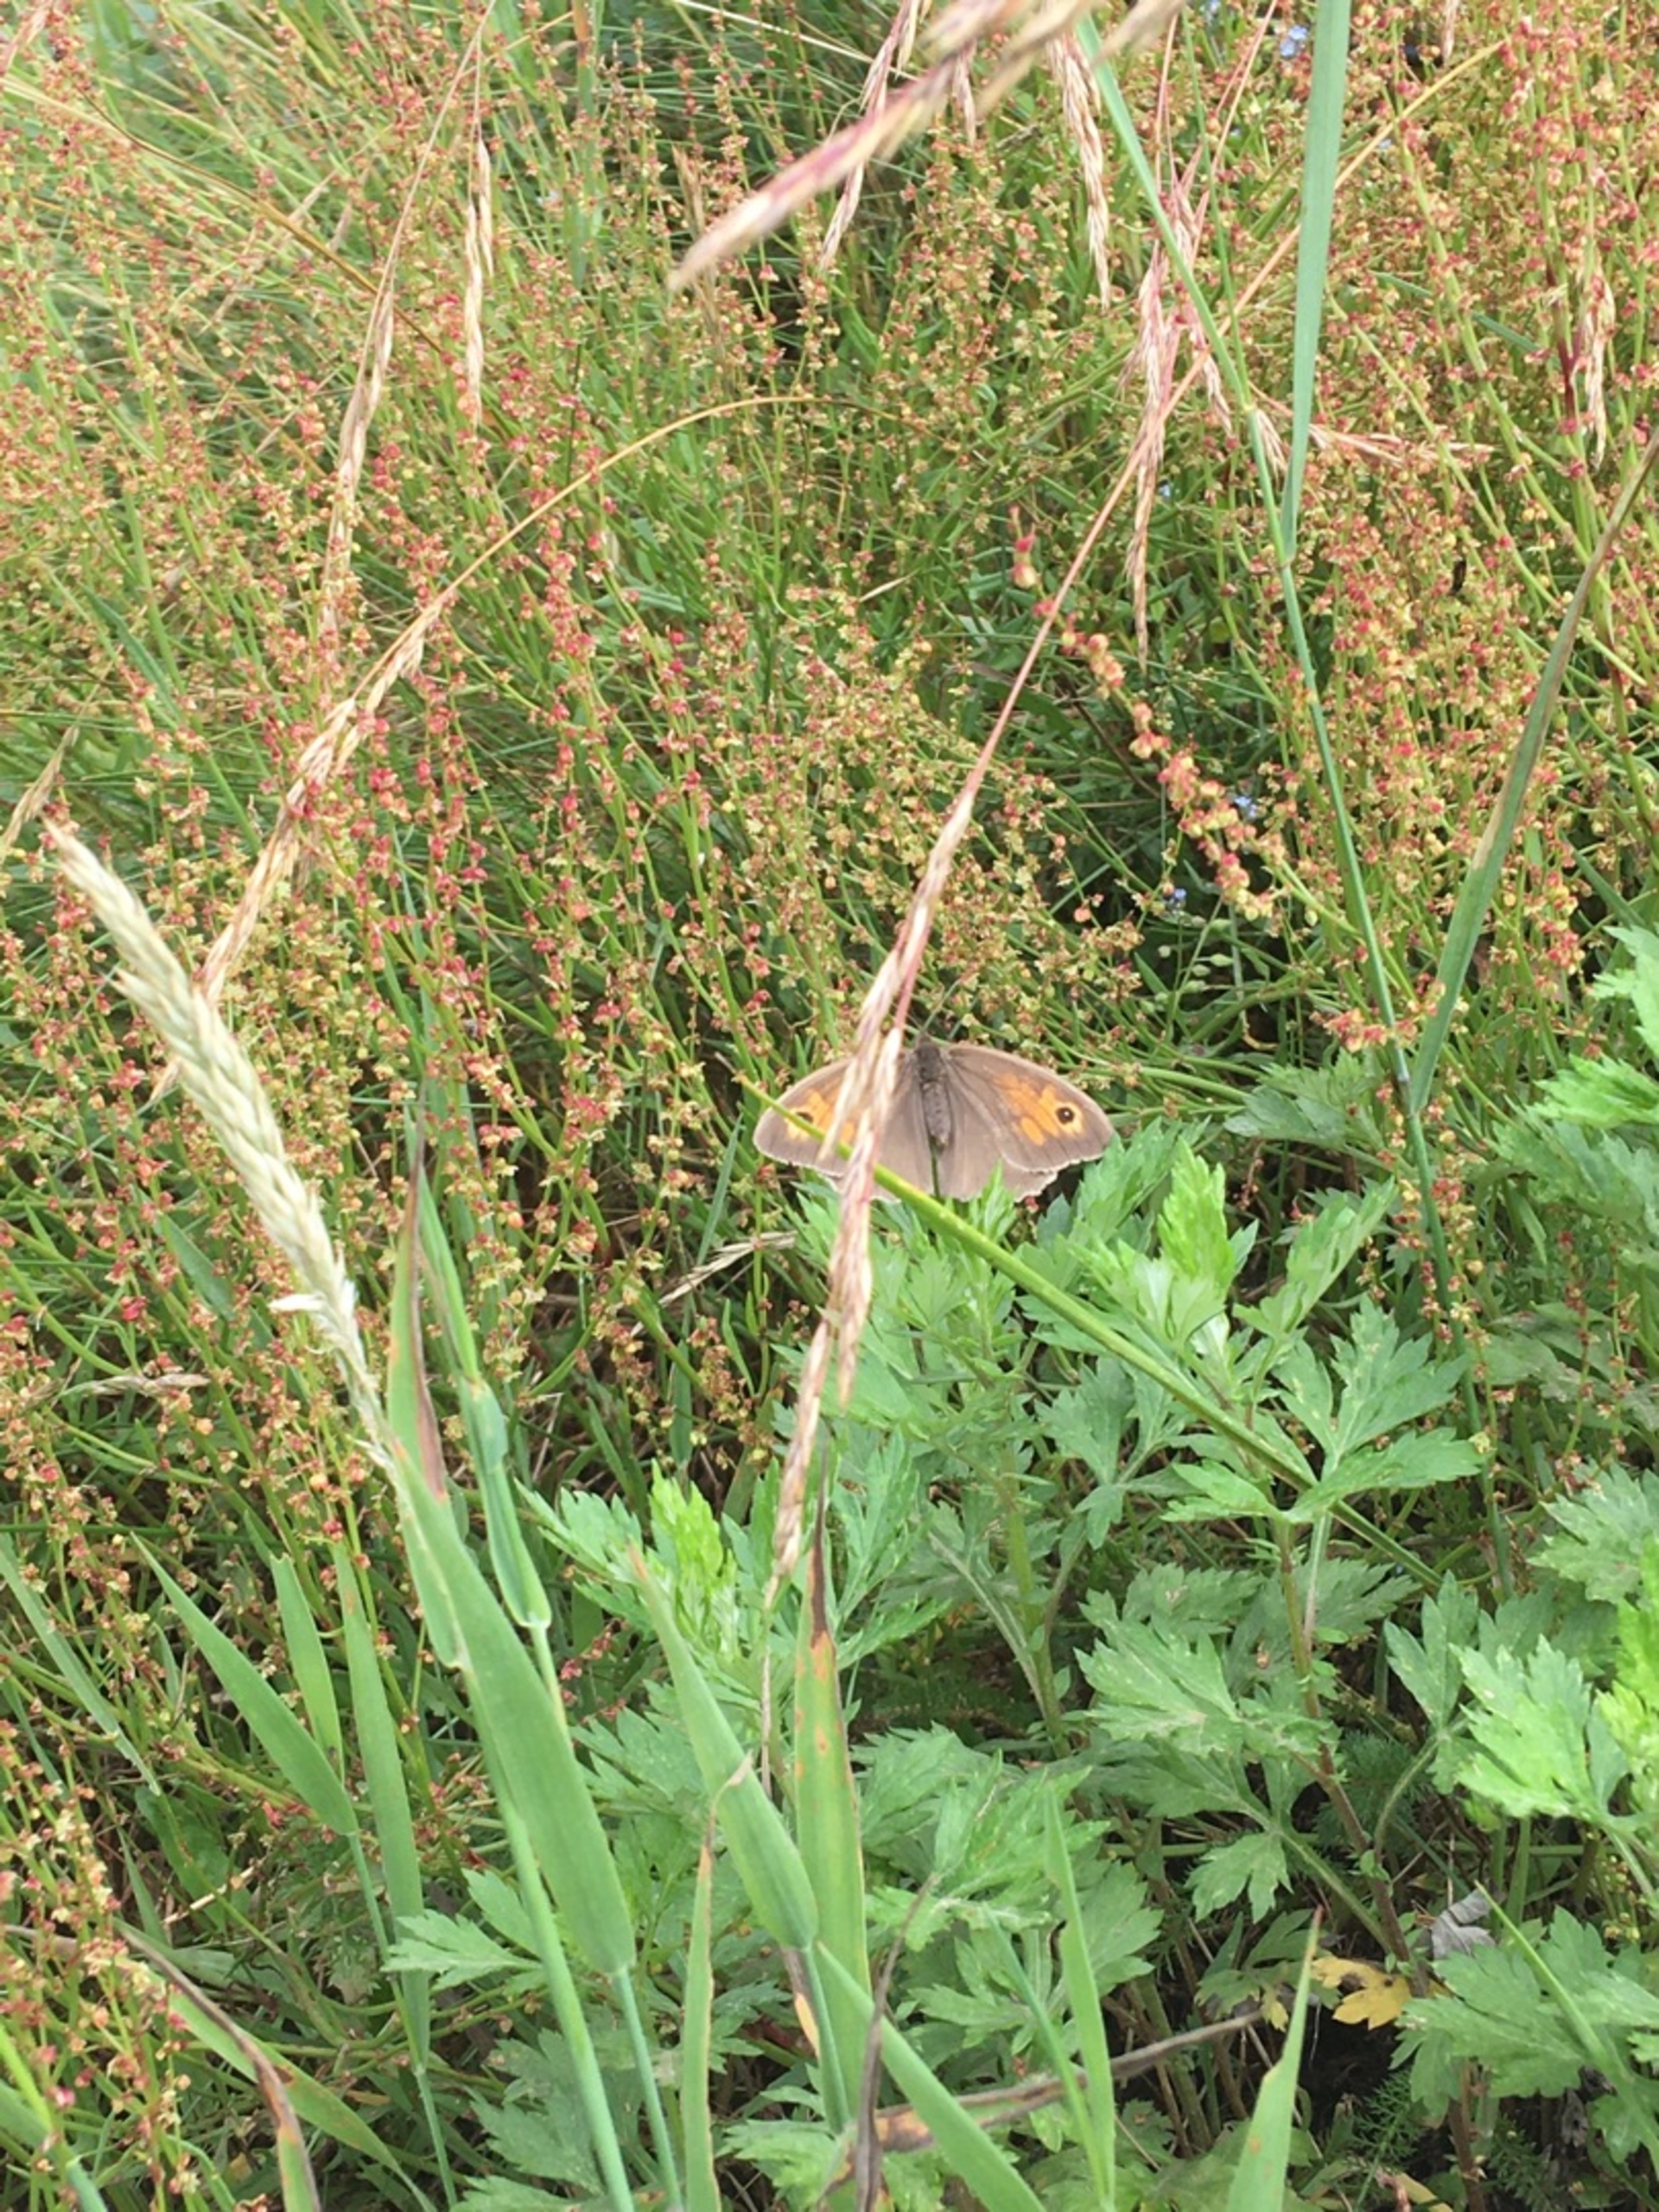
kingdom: Animalia
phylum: Arthropoda
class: Insecta
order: Lepidoptera
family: Nymphalidae
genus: Maniola
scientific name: Maniola jurtina
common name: Græsrandøje
